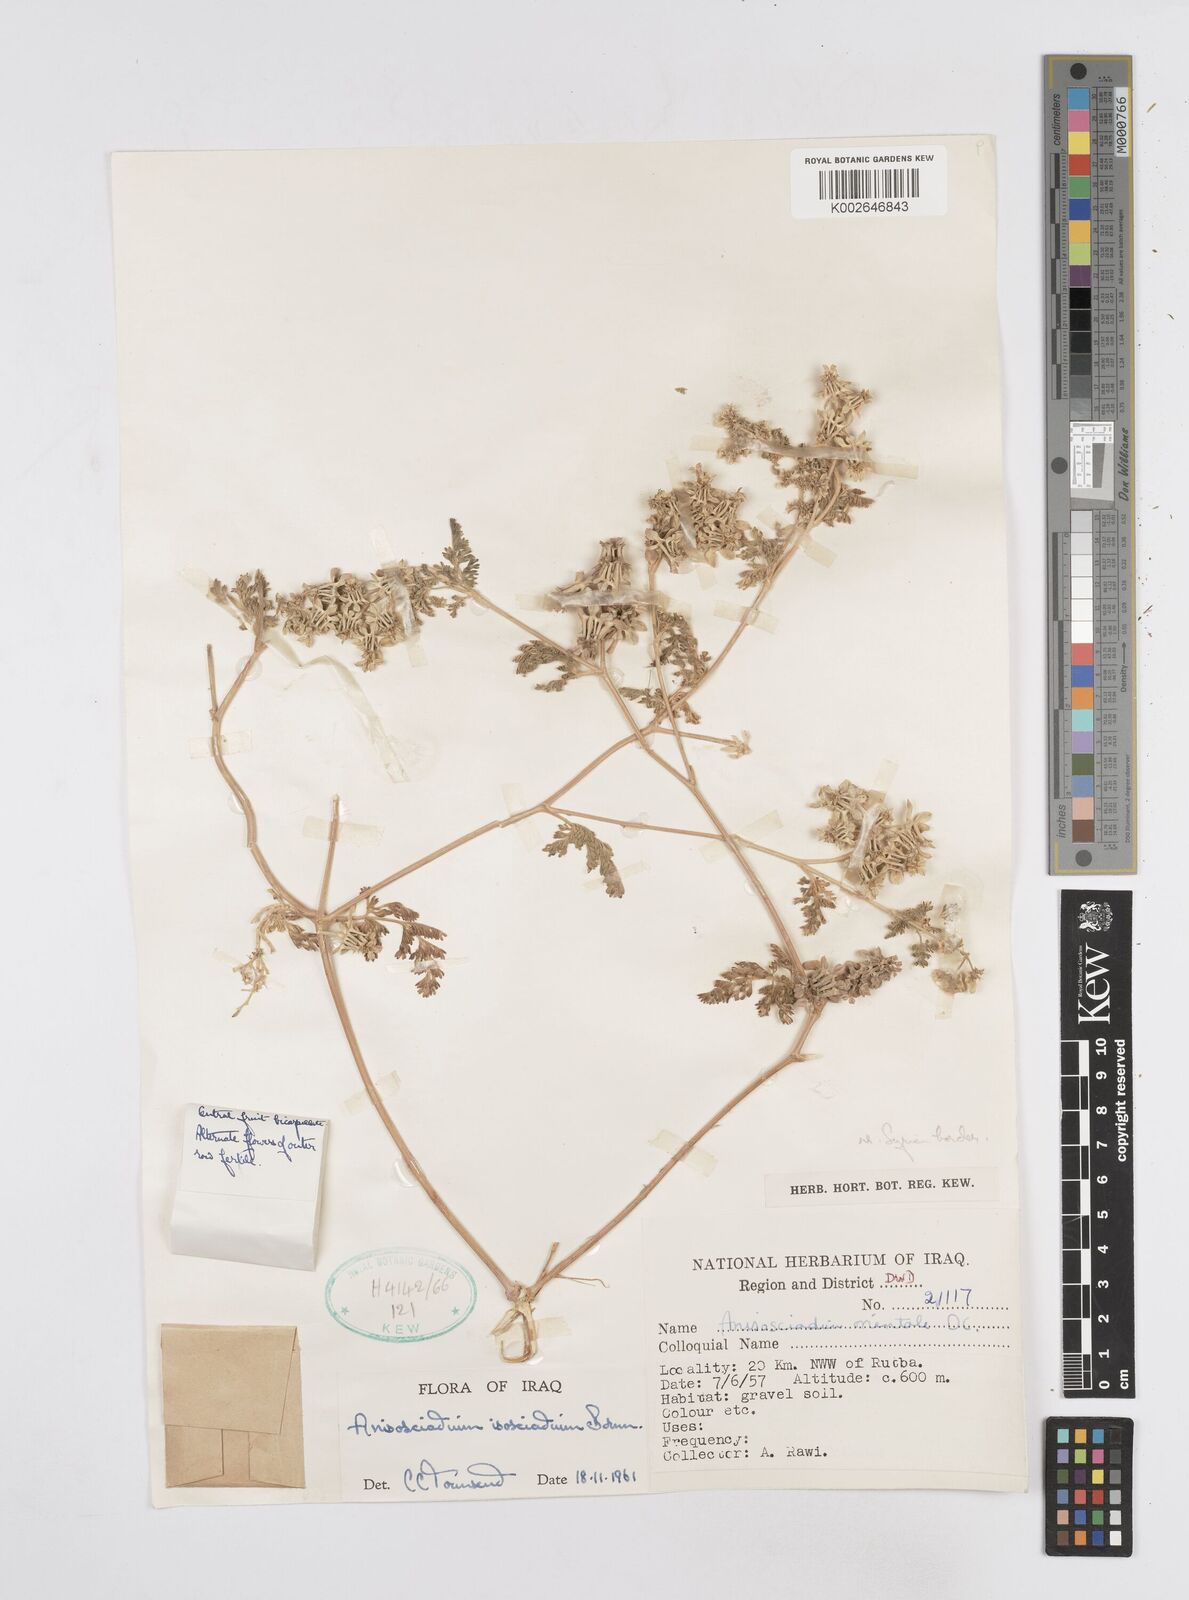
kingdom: Plantae
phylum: Tracheophyta
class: Magnoliopsida
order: Apiales
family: Apiaceae
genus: Anisosciadium
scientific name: Anisosciadium isosciadium
